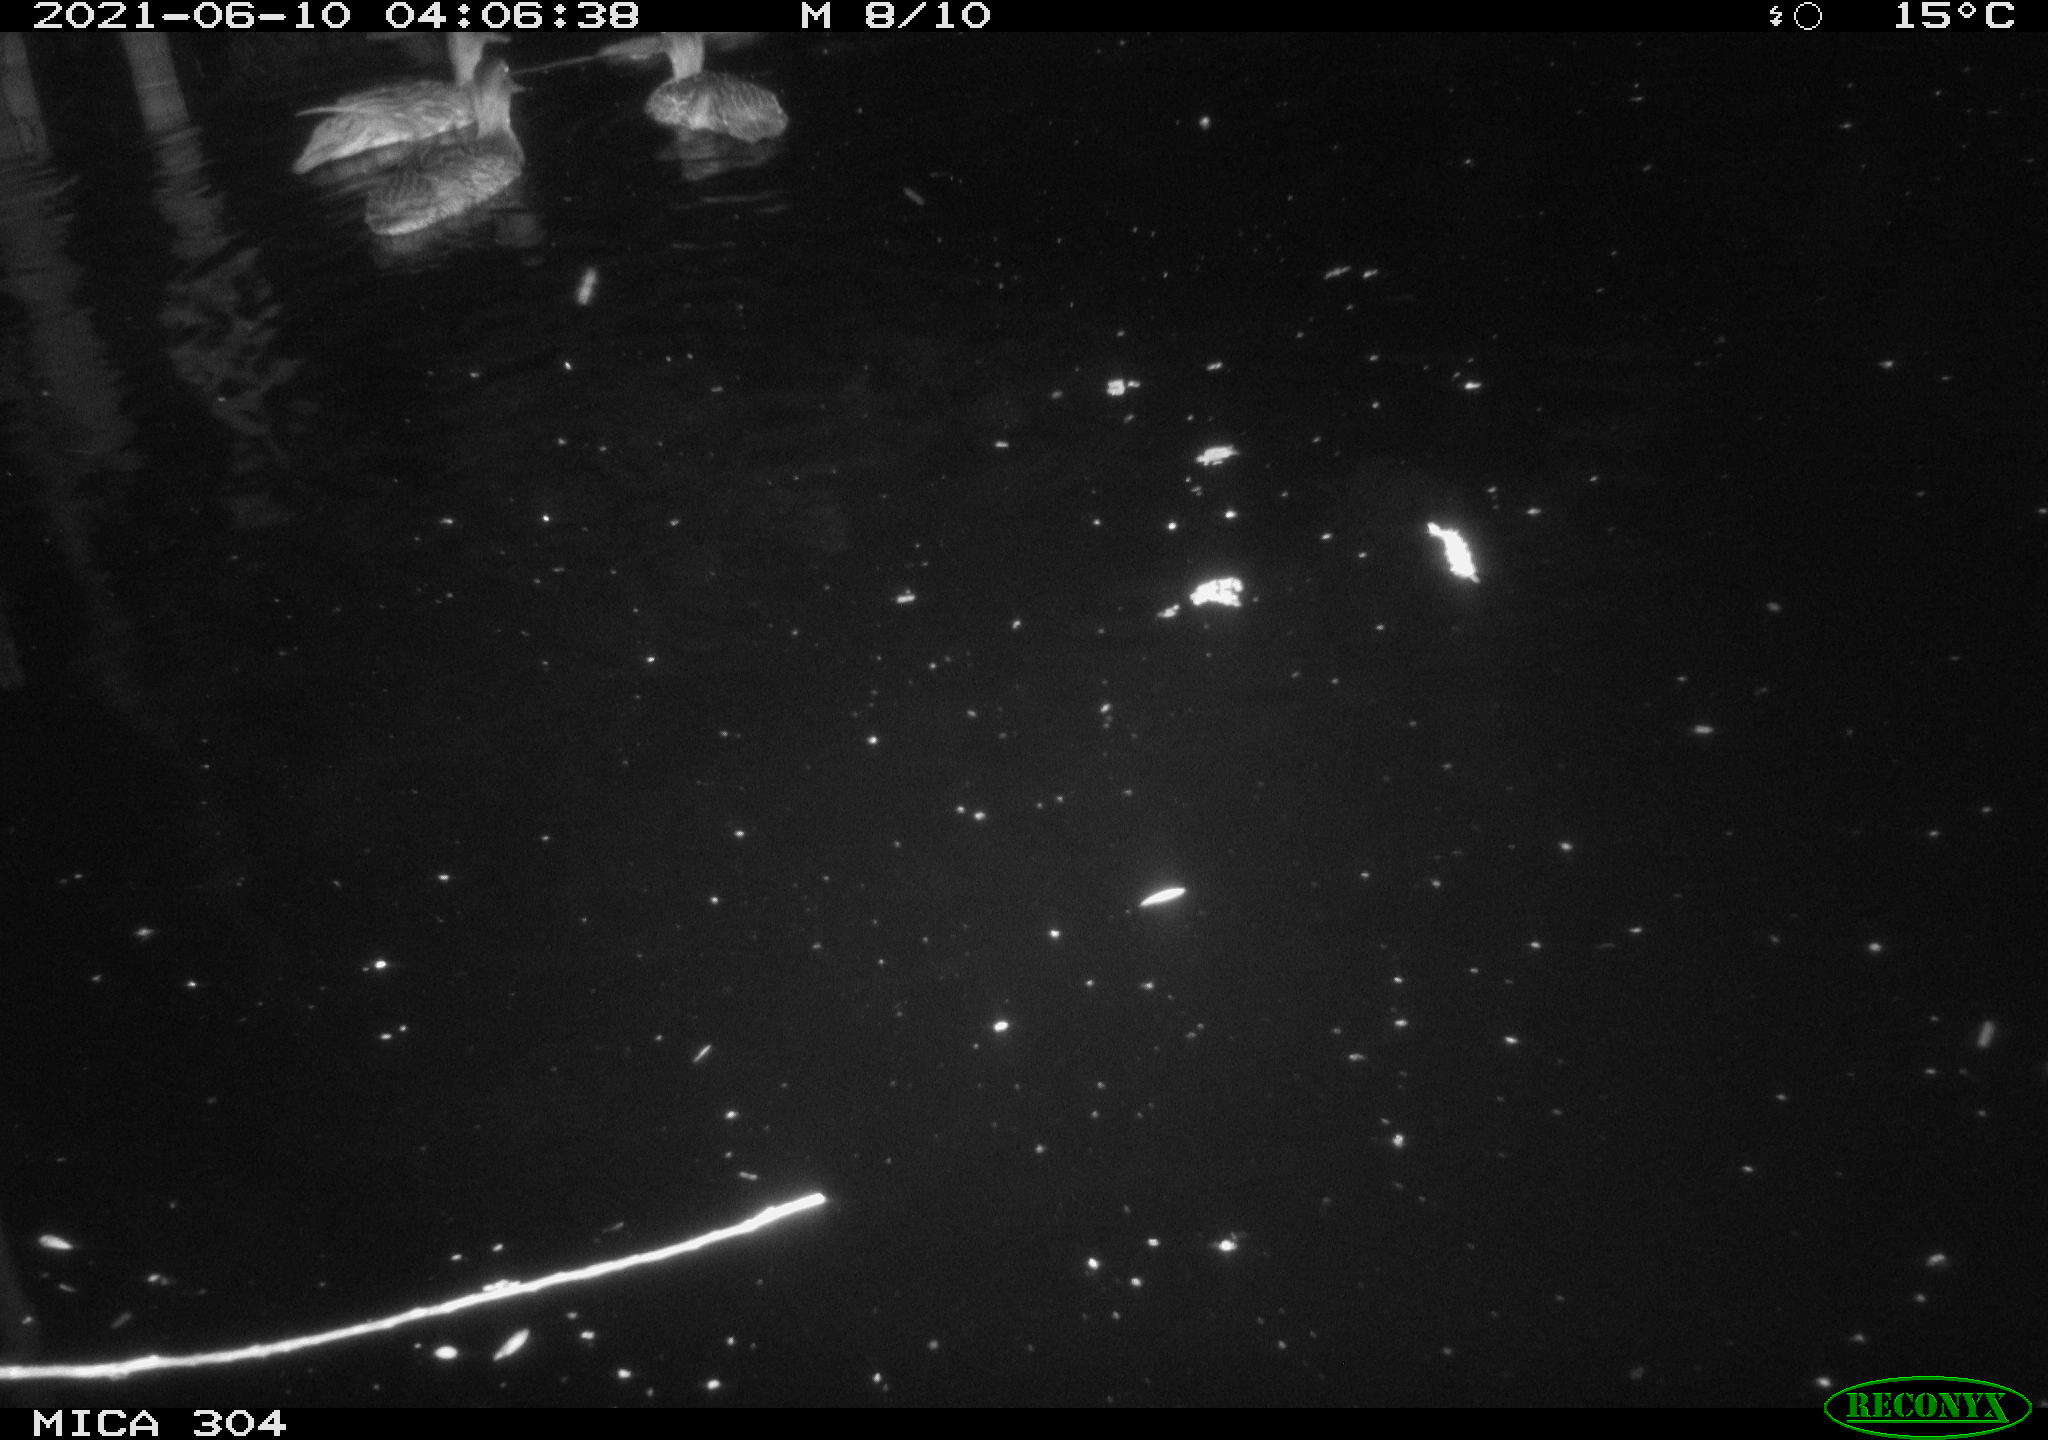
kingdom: Animalia
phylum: Chordata
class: Aves
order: Anseriformes
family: Anatidae
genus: Mareca
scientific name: Mareca strepera
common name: Gadwall
